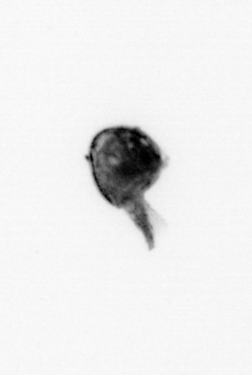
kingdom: Animalia
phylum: Arthropoda
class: Maxillopoda
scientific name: Maxillopoda
